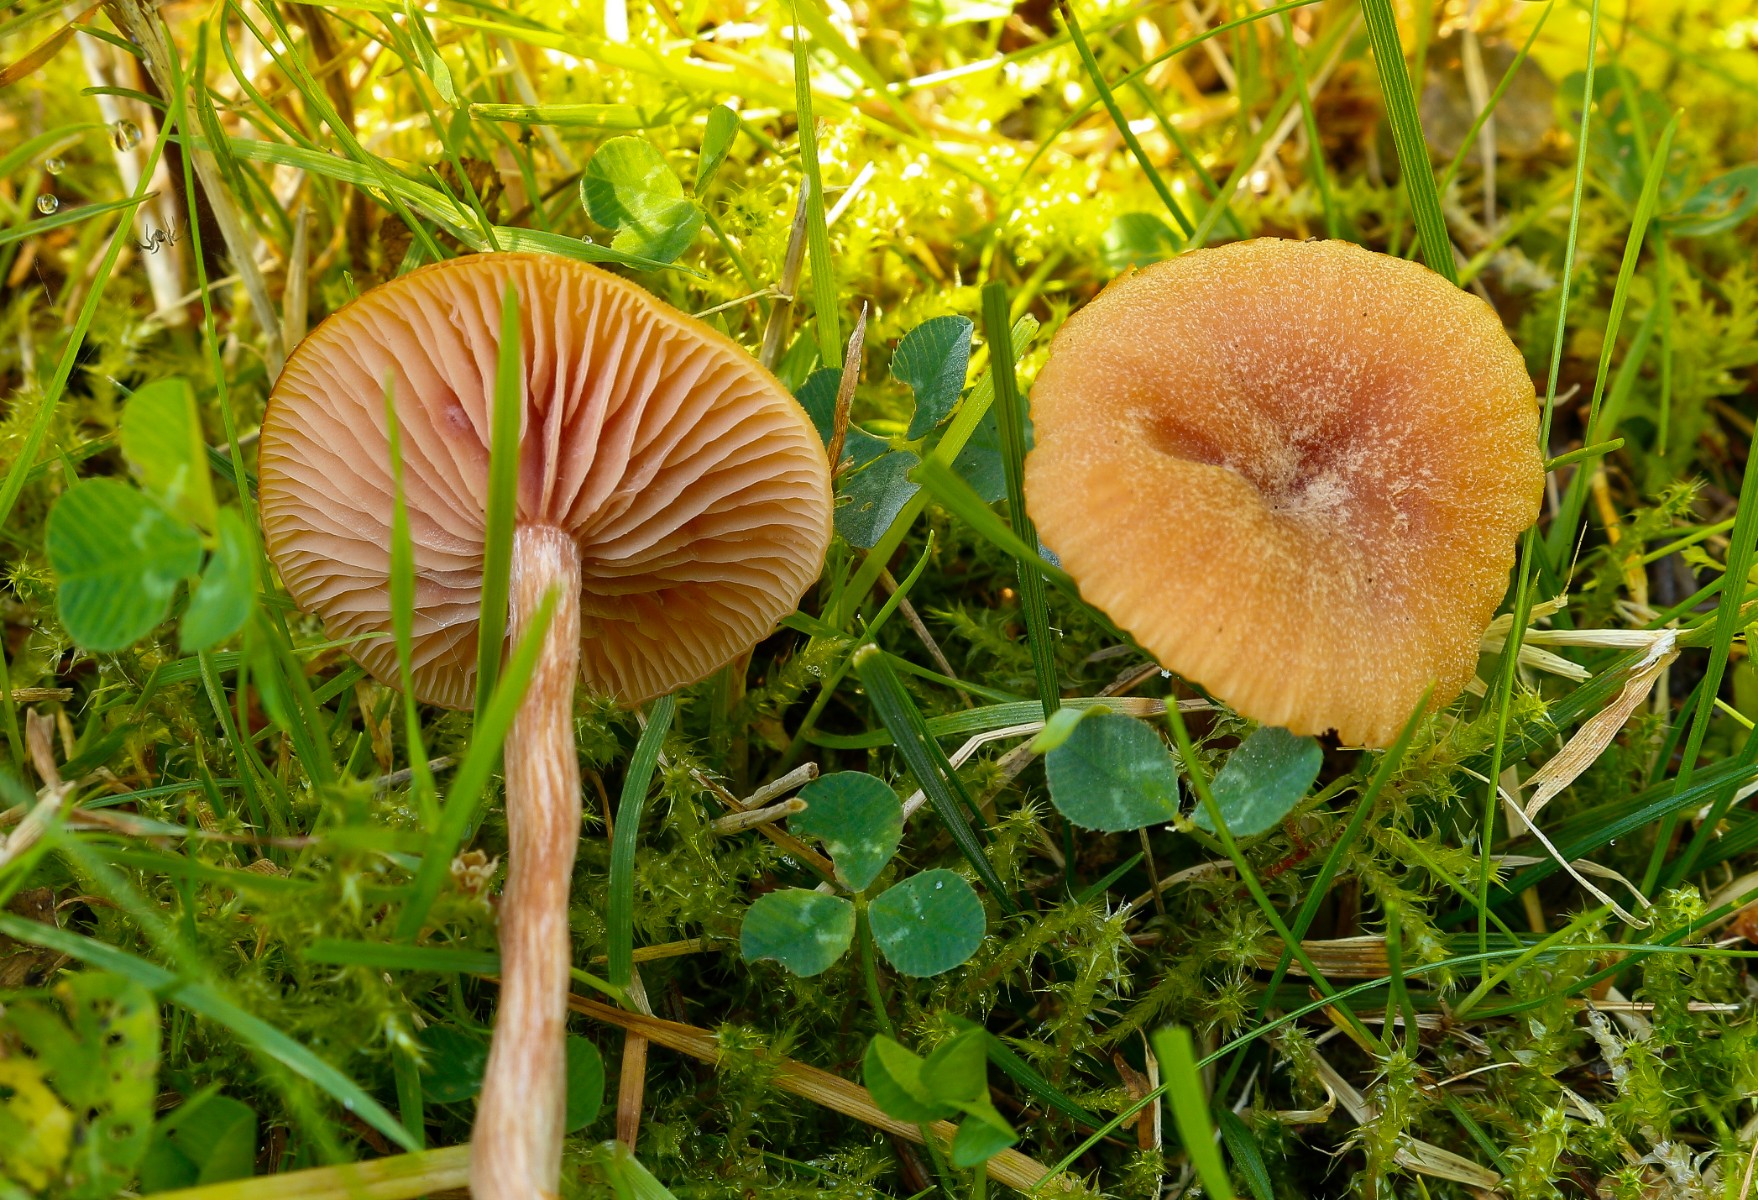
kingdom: Fungi
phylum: Basidiomycota
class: Agaricomycetes
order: Agaricales
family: Hydnangiaceae
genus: Laccaria
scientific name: Laccaria laccata
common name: rød ametysthat
